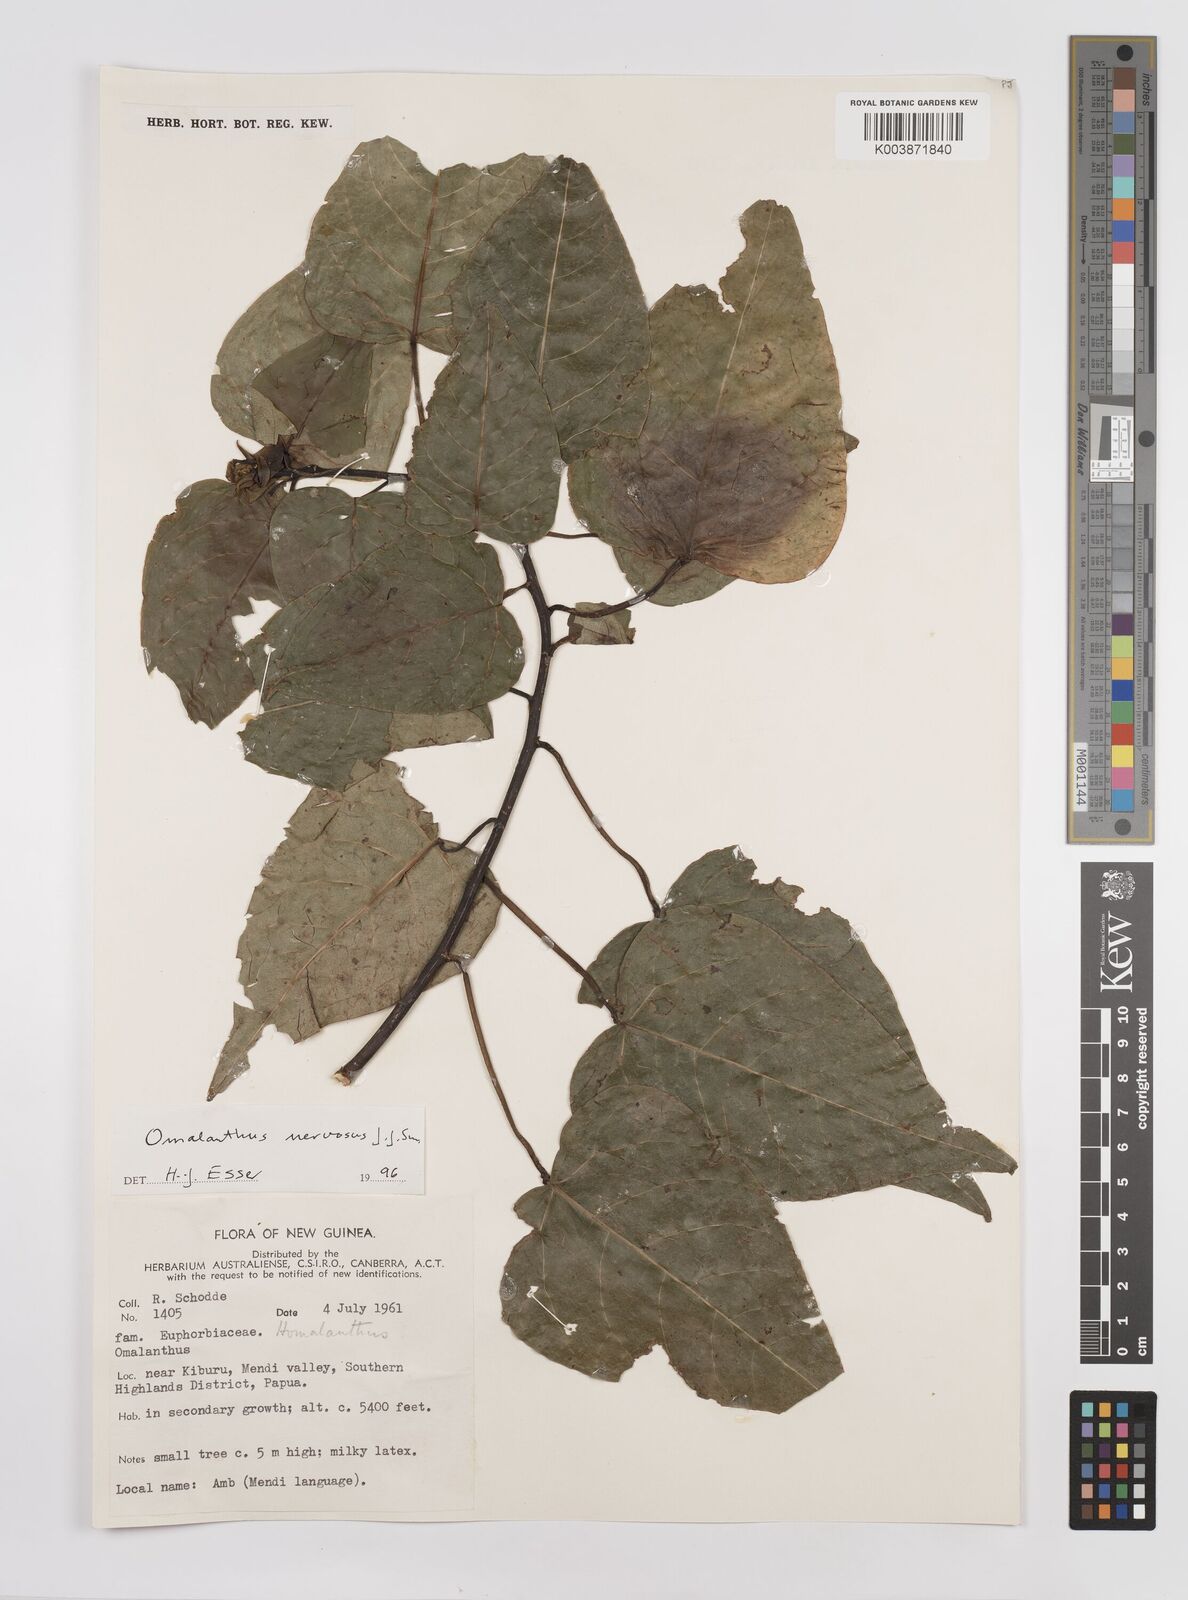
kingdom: Plantae
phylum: Tracheophyta
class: Magnoliopsida
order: Malpighiales
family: Euphorbiaceae
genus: Homalanthus
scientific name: Homalanthus nervosus
